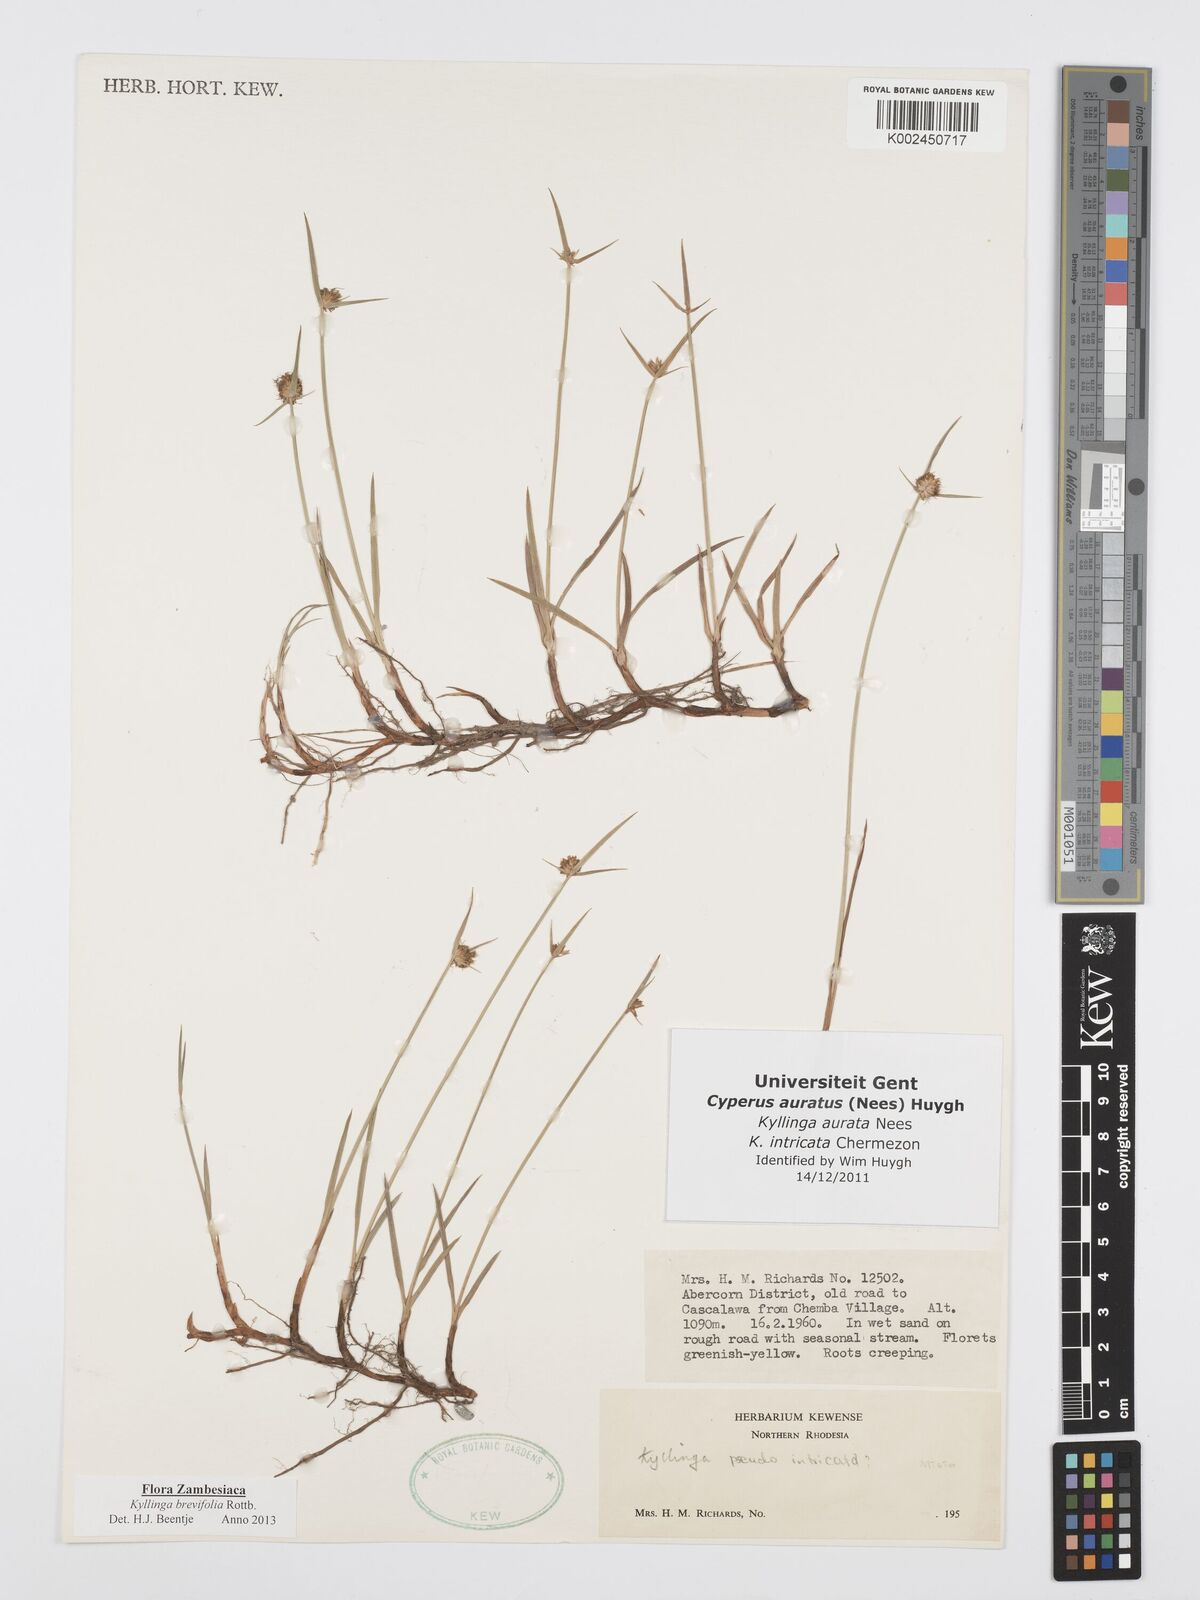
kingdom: Plantae
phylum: Tracheophyta
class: Liliopsida
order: Poales
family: Cyperaceae
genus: Cyperus
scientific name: Cyperus brevifolius
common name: Globe kyllinga
